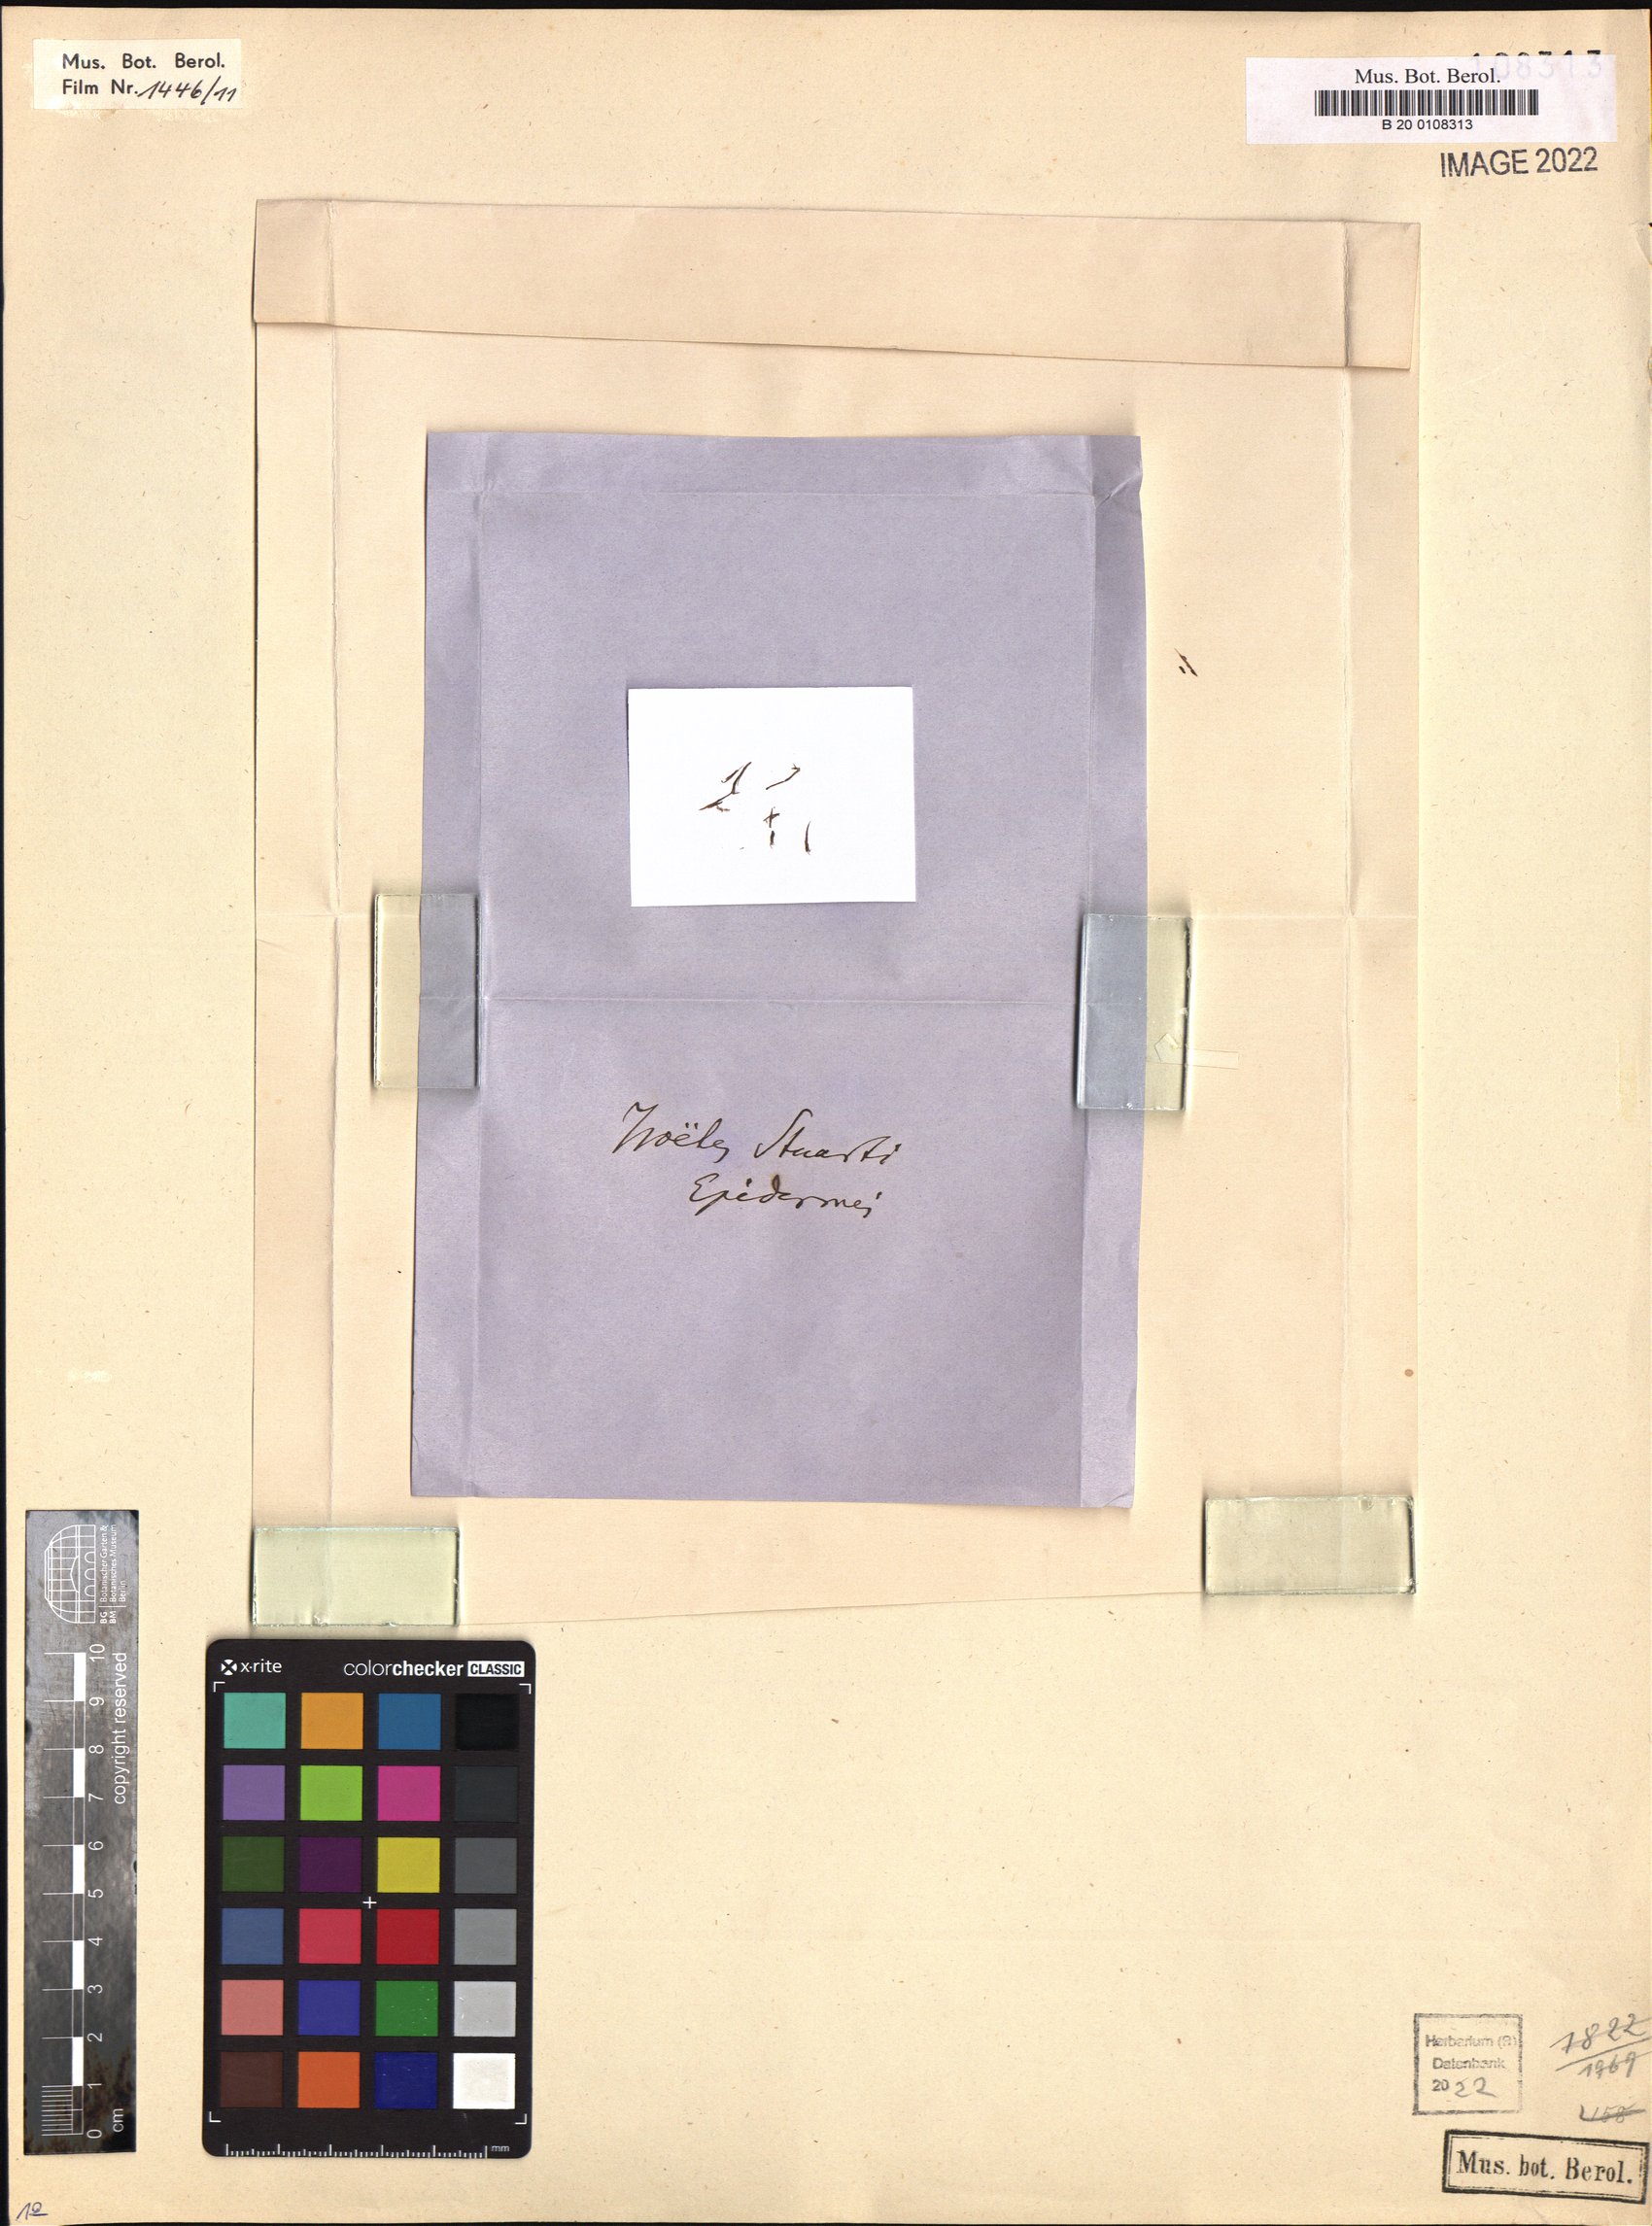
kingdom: Plantae
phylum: Tracheophyta
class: Lycopodiopsida
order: Isoetales
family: Isoetaceae
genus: Isoetes
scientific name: Isoetes muelleri
